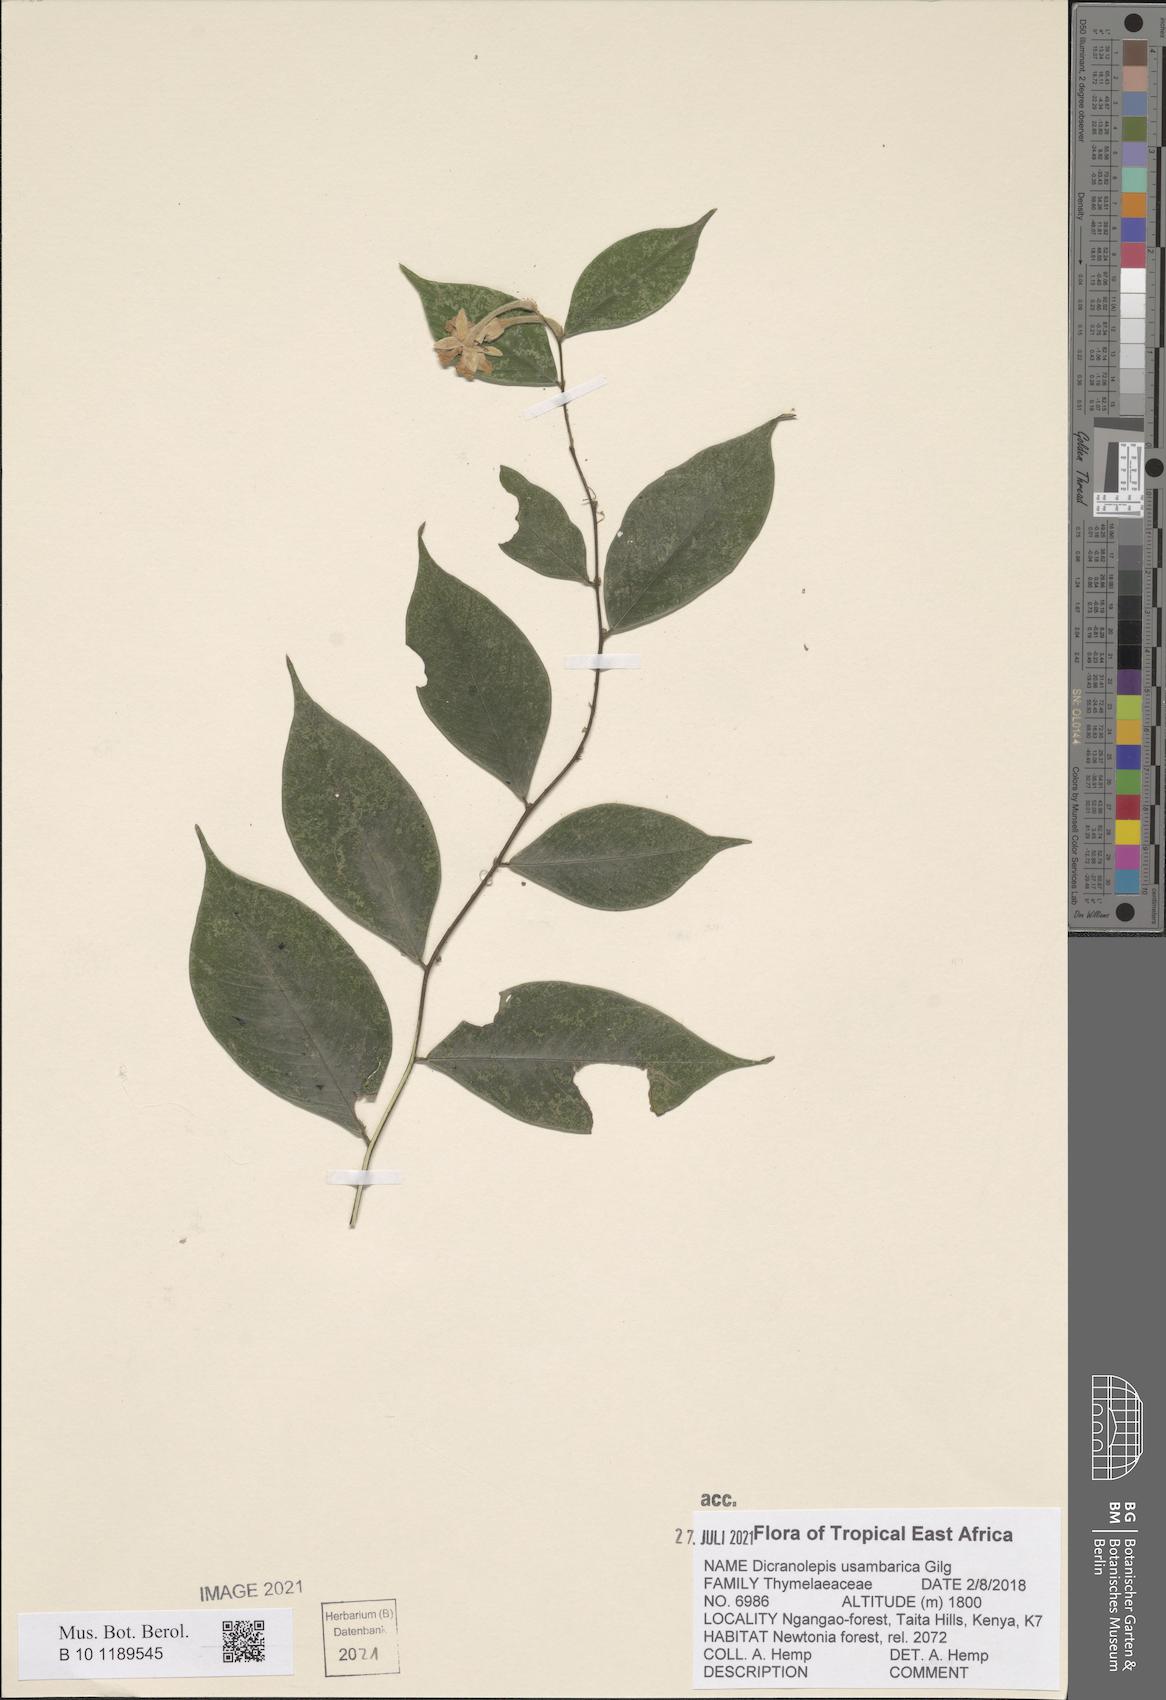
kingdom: Plantae
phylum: Tracheophyta
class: Magnoliopsida
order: Malvales
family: Thymelaeaceae
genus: Dicranolepis
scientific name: Dicranolepis usambarica
